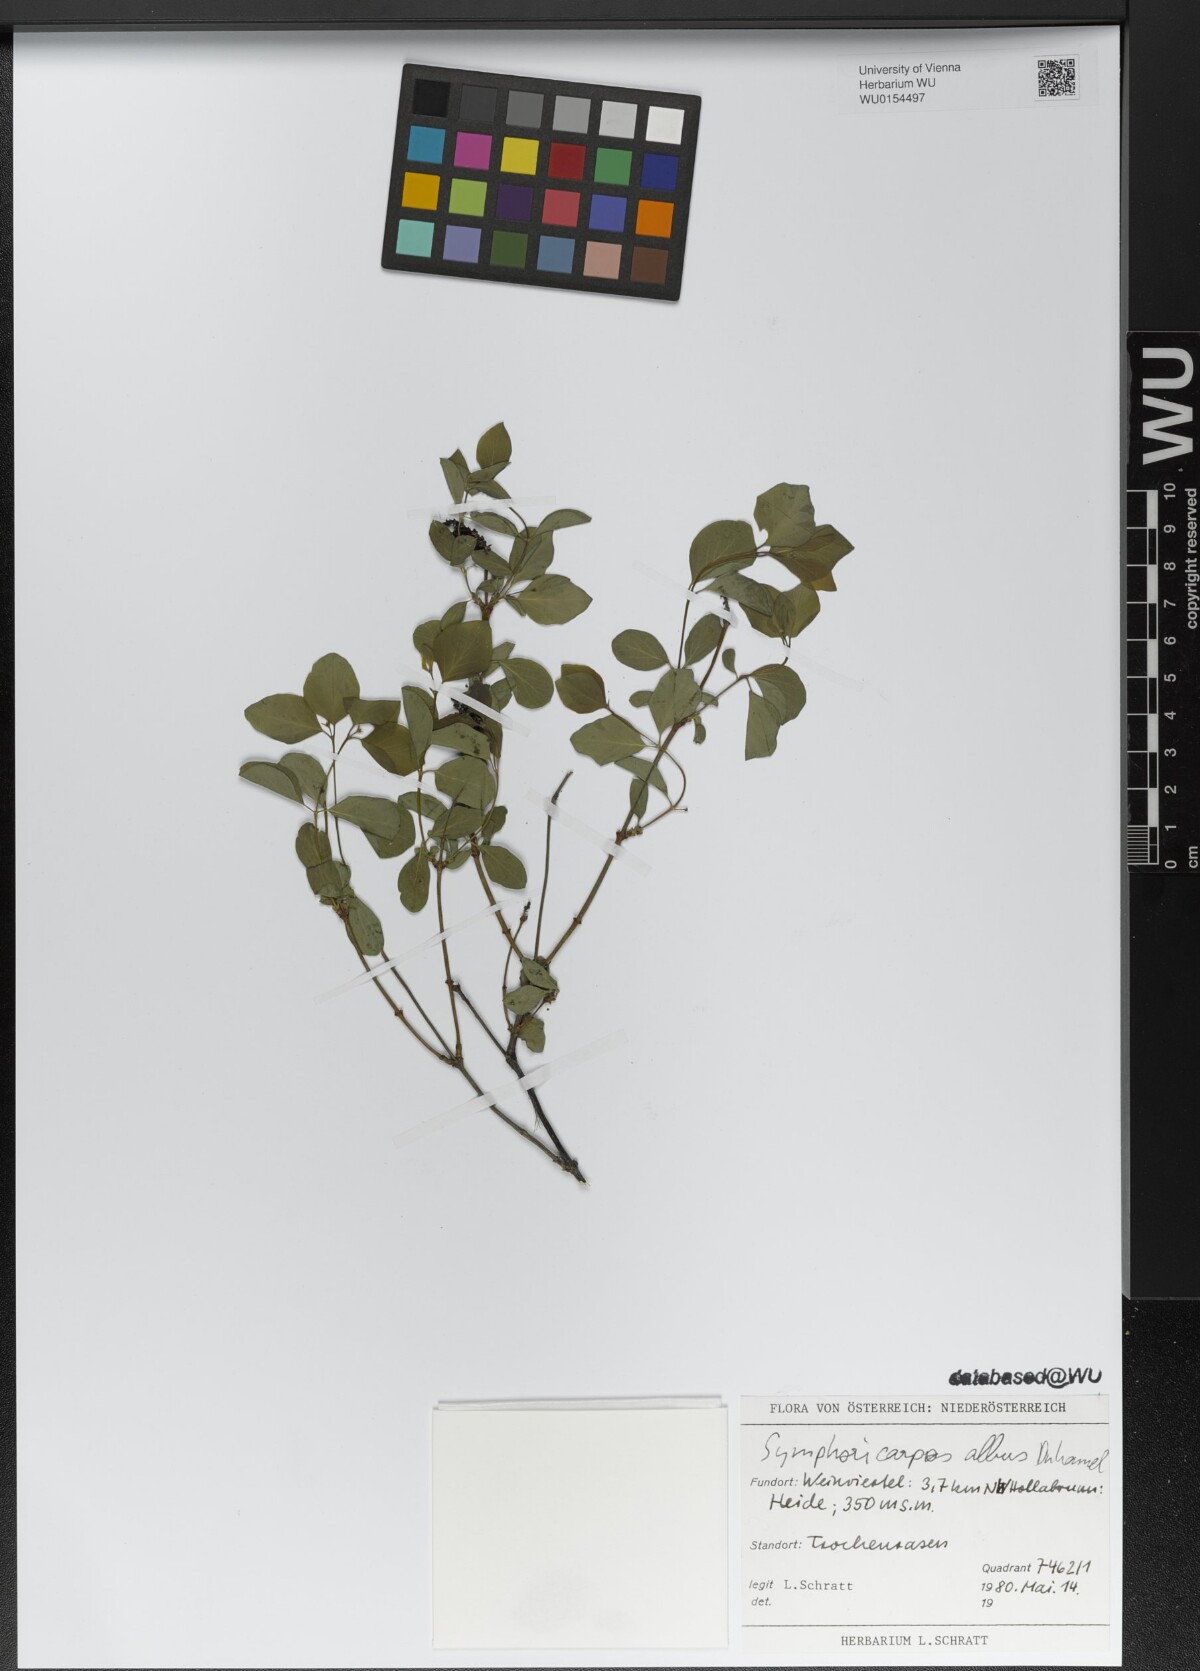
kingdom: Plantae
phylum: Tracheophyta
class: Magnoliopsida
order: Dipsacales
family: Caprifoliaceae
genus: Symphoricarpos
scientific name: Symphoricarpos albus
